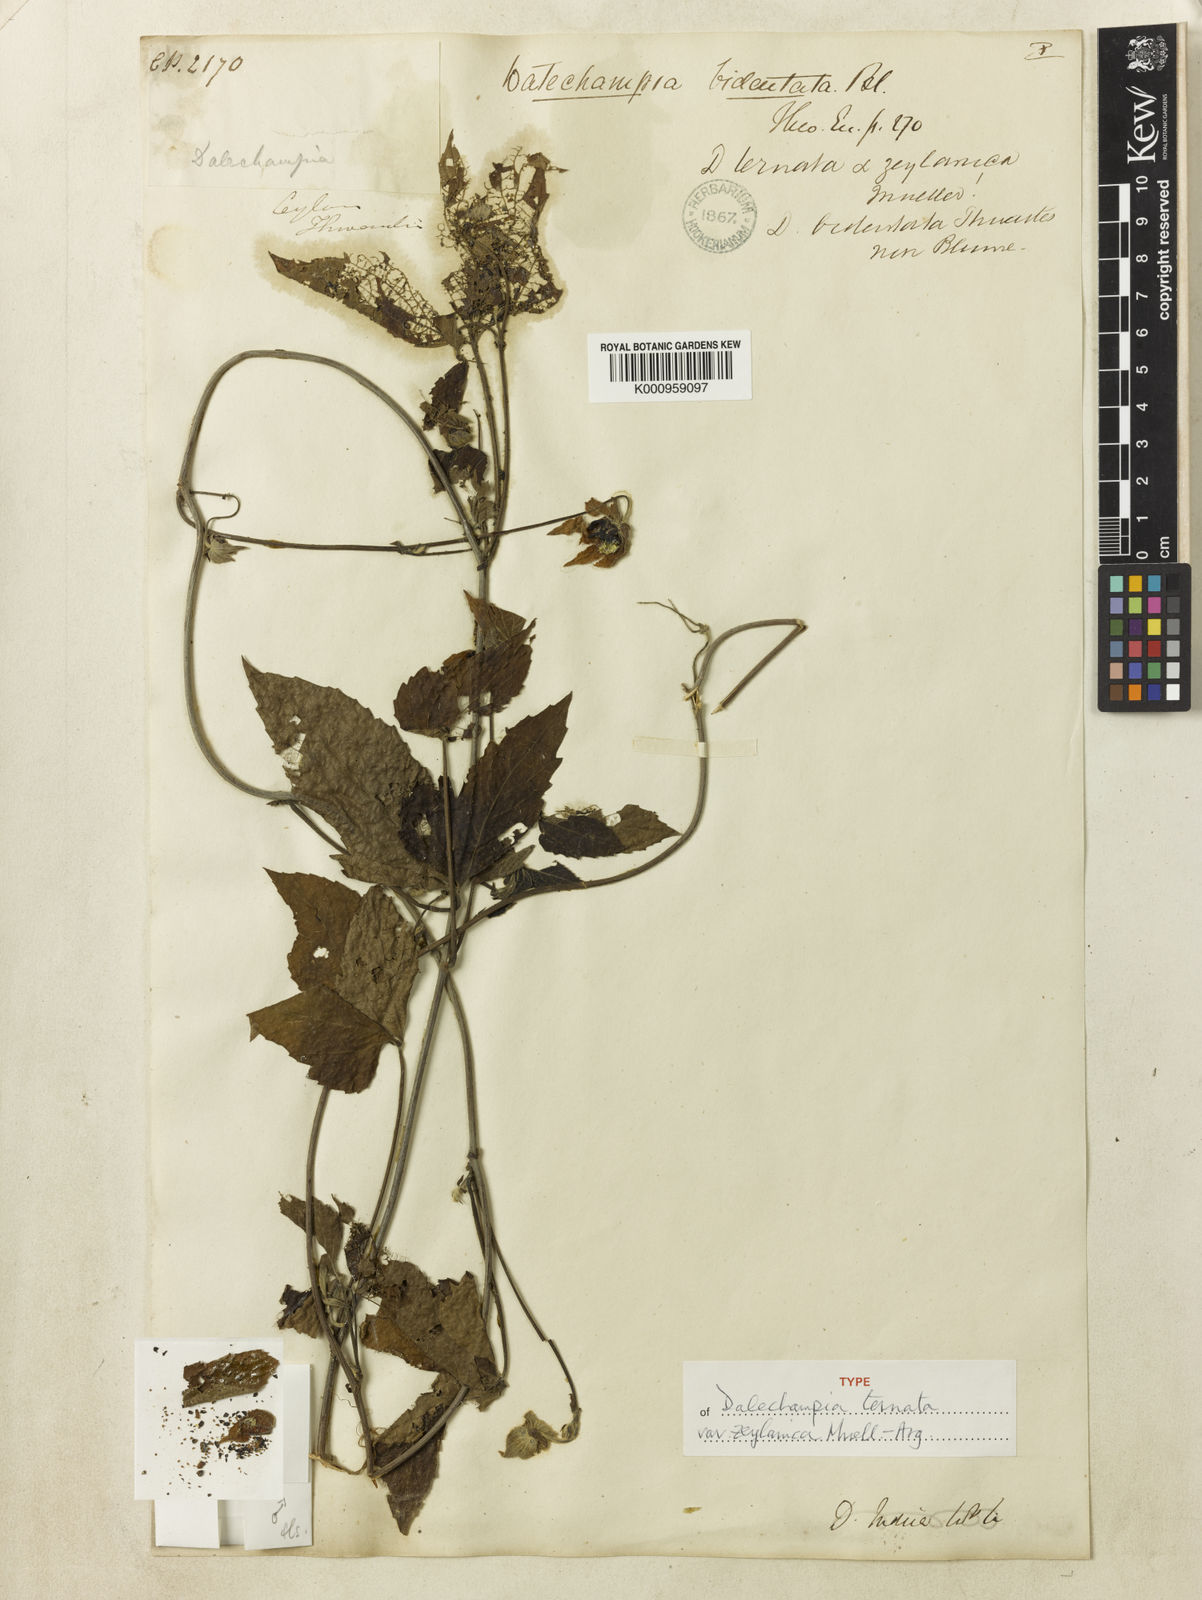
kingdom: Plantae
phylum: Tracheophyta
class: Magnoliopsida
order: Malpighiales
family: Euphorbiaceae
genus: Dalechampia
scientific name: Dalechampia indica
